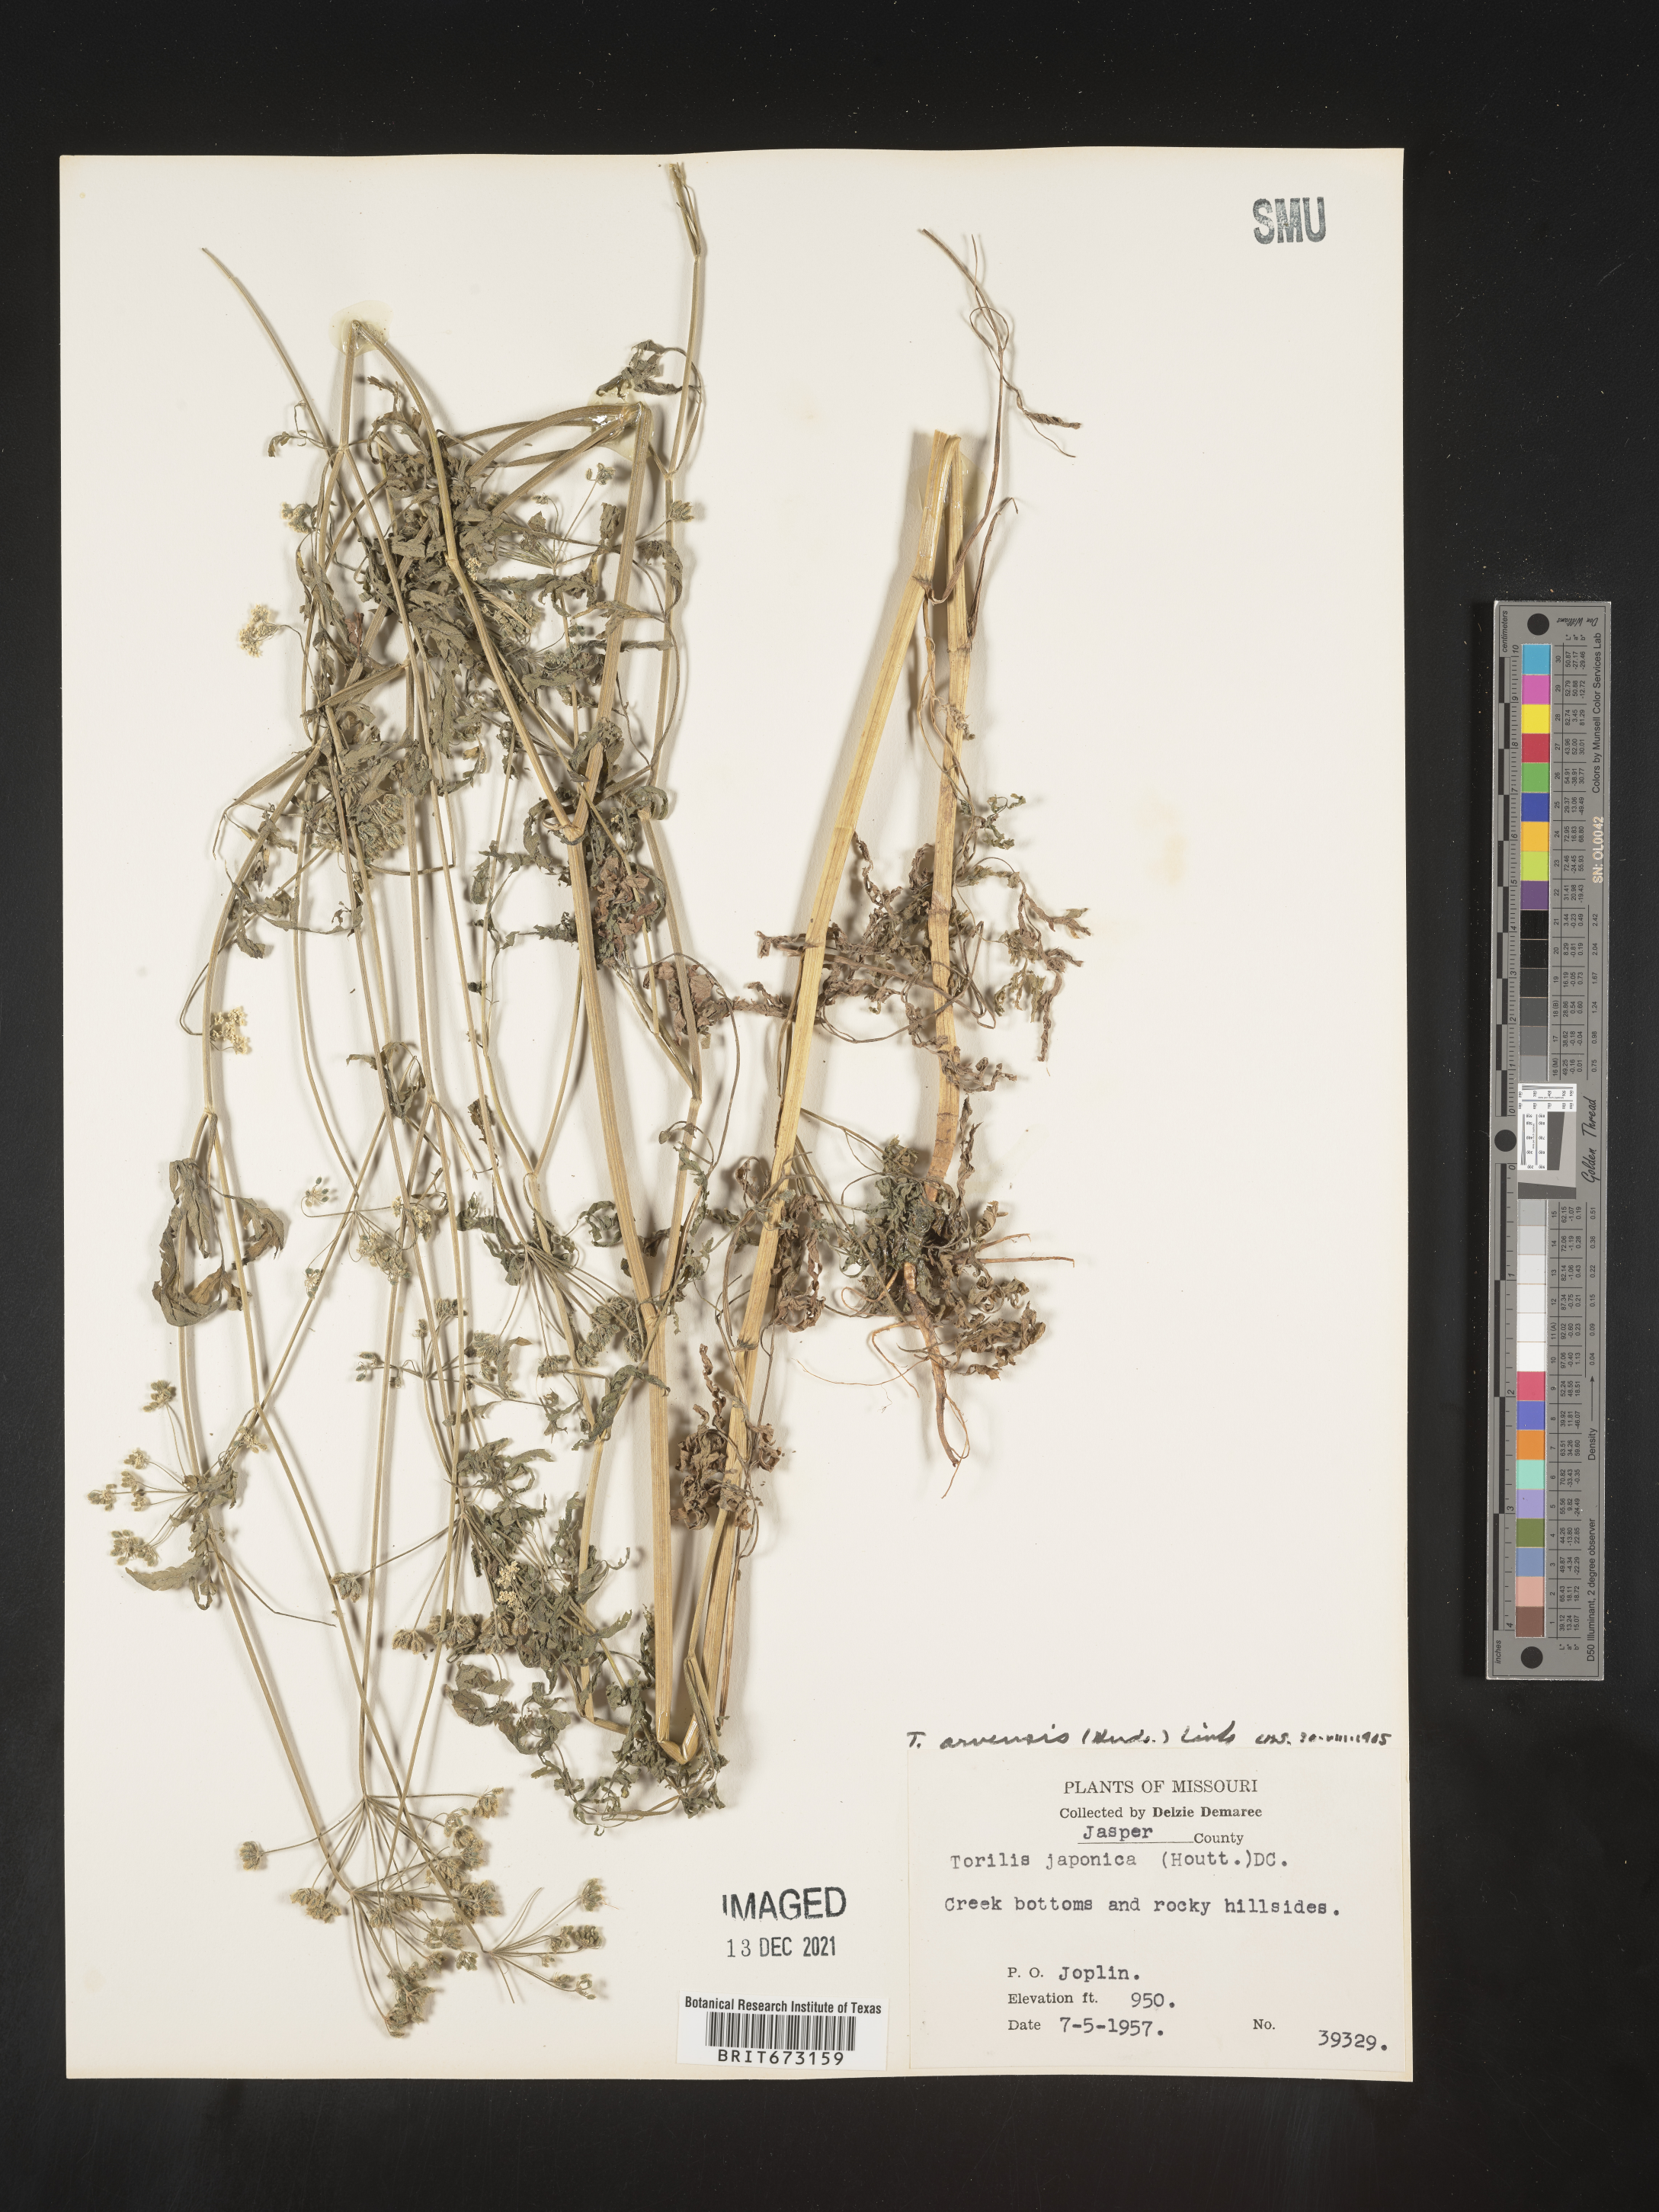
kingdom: Plantae
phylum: Tracheophyta
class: Magnoliopsida
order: Apiales
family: Apiaceae
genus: Torilis
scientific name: Torilis arvensis
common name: Spreading hedge-parsley
